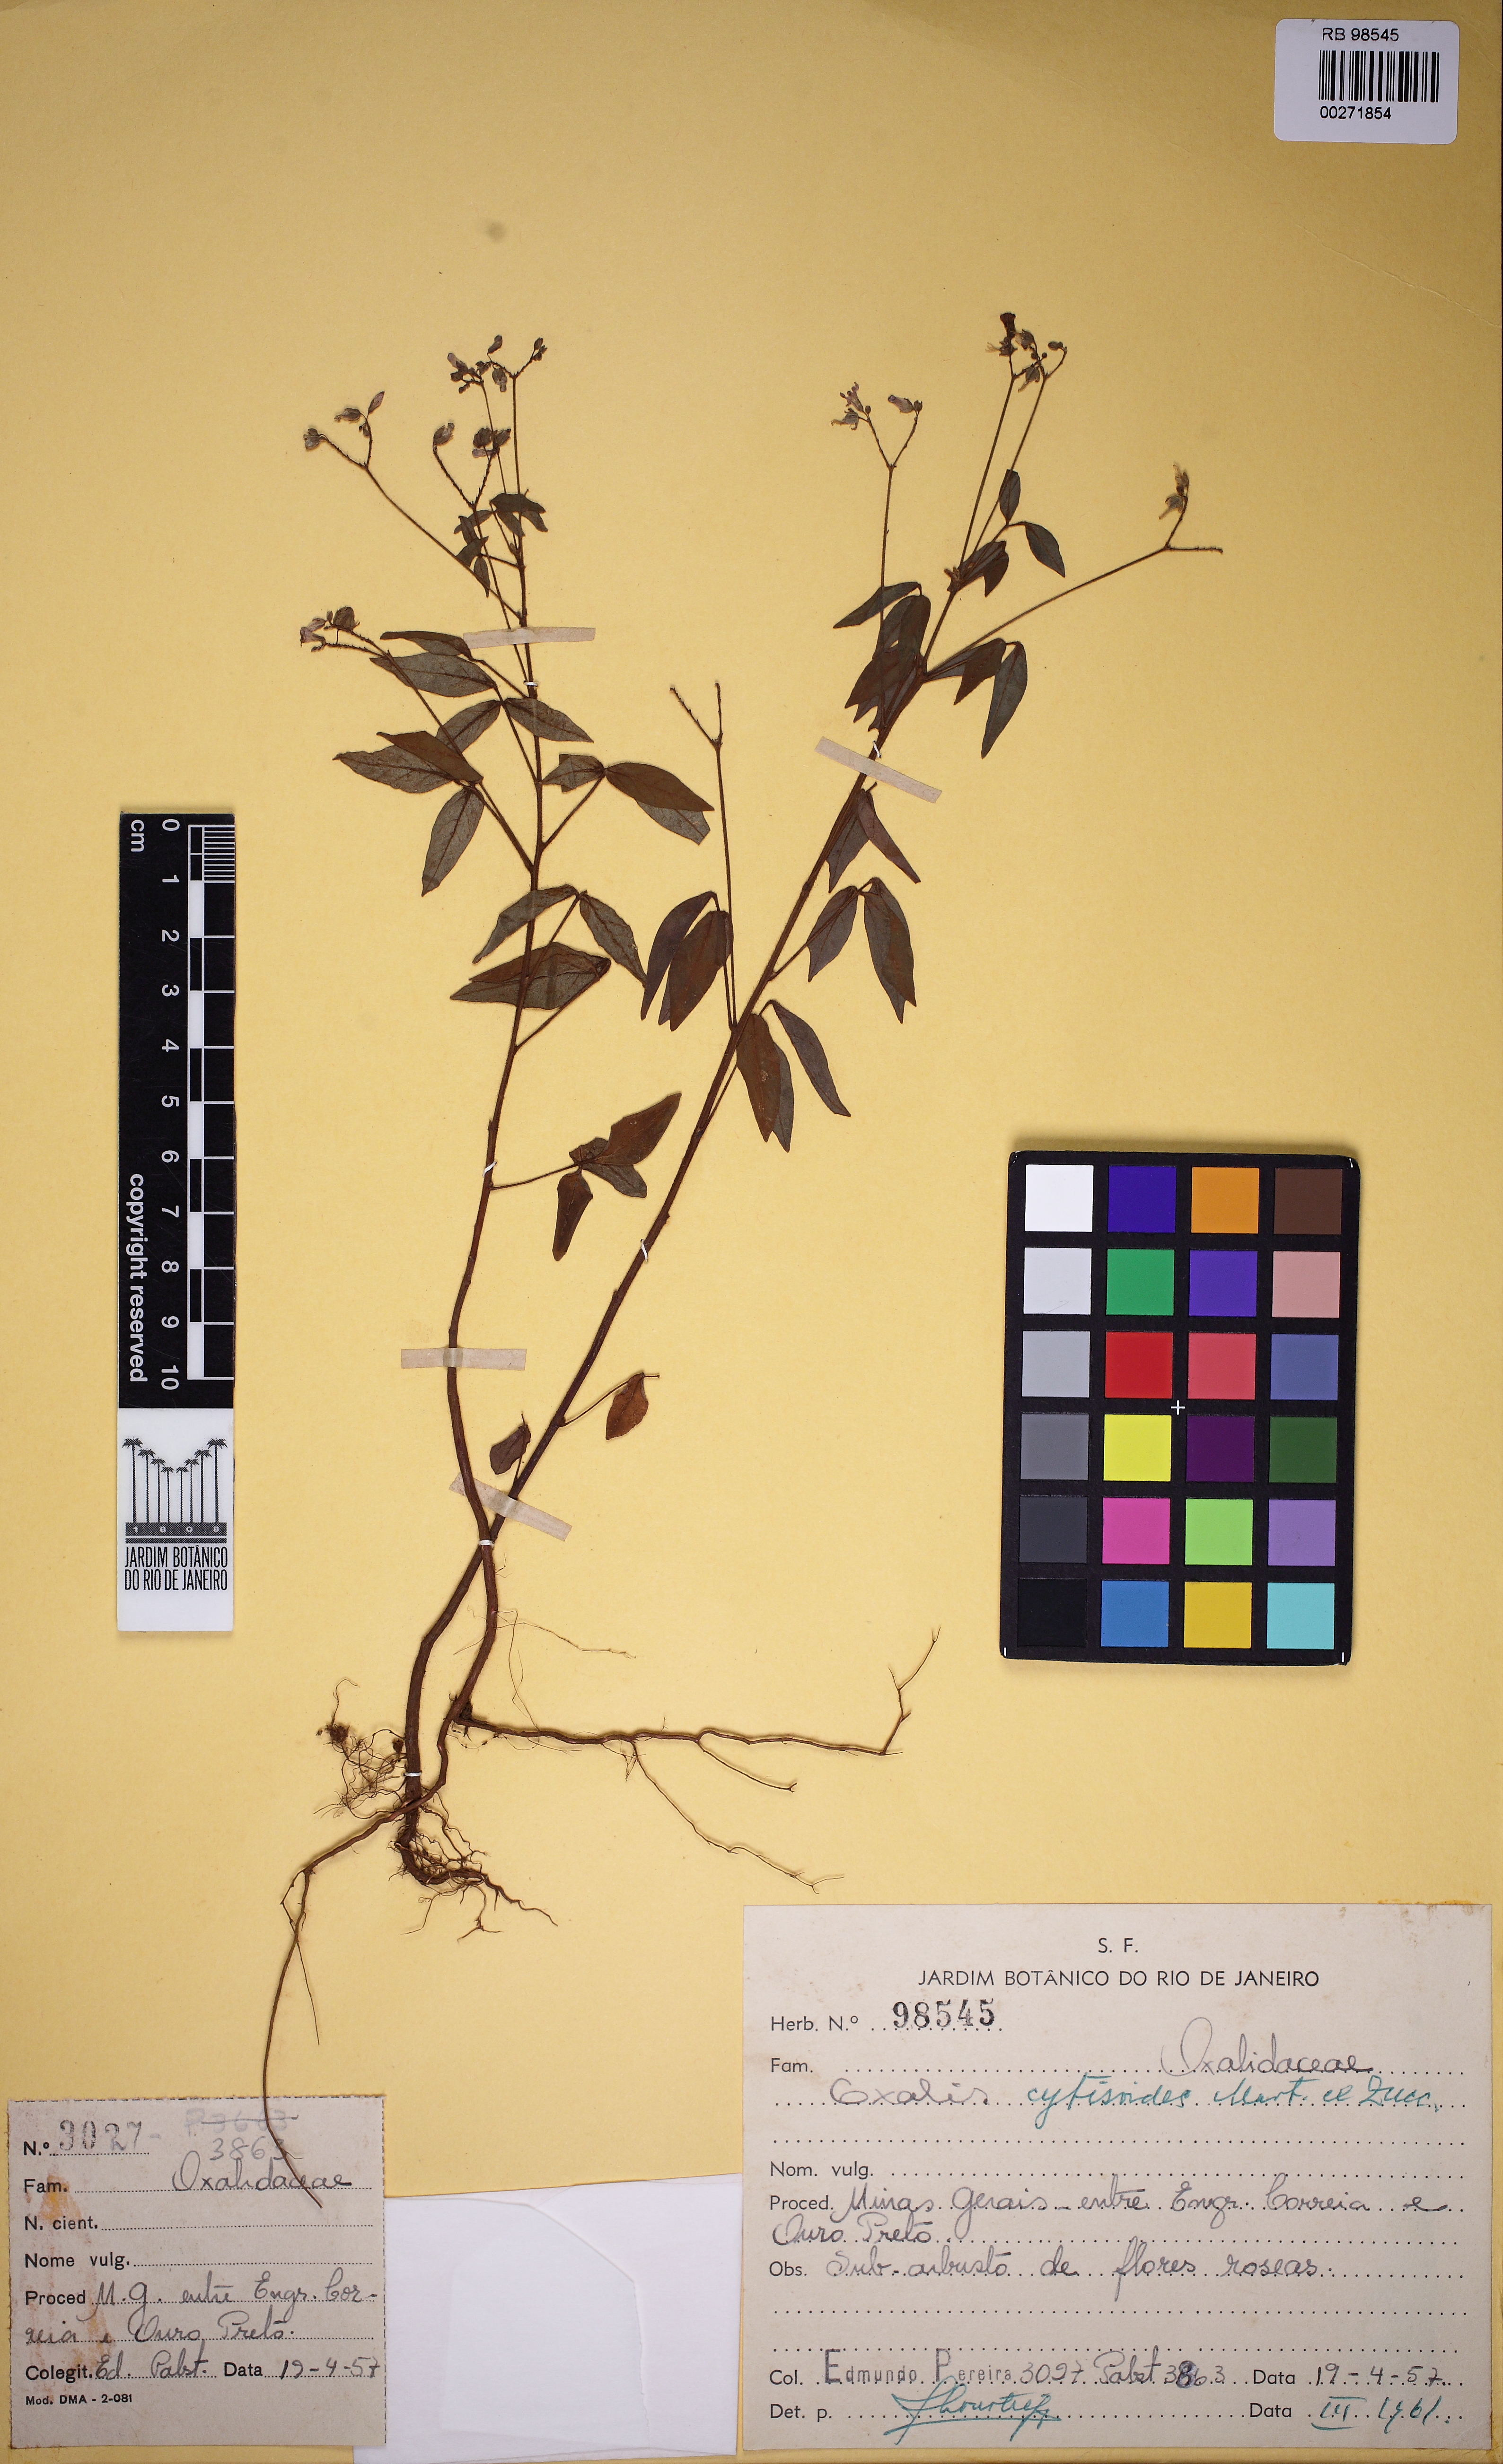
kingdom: Plantae
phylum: Tracheophyta
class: Magnoliopsida
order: Oxalidales
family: Oxalidaceae
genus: Oxalis
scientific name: Oxalis cytisoides
